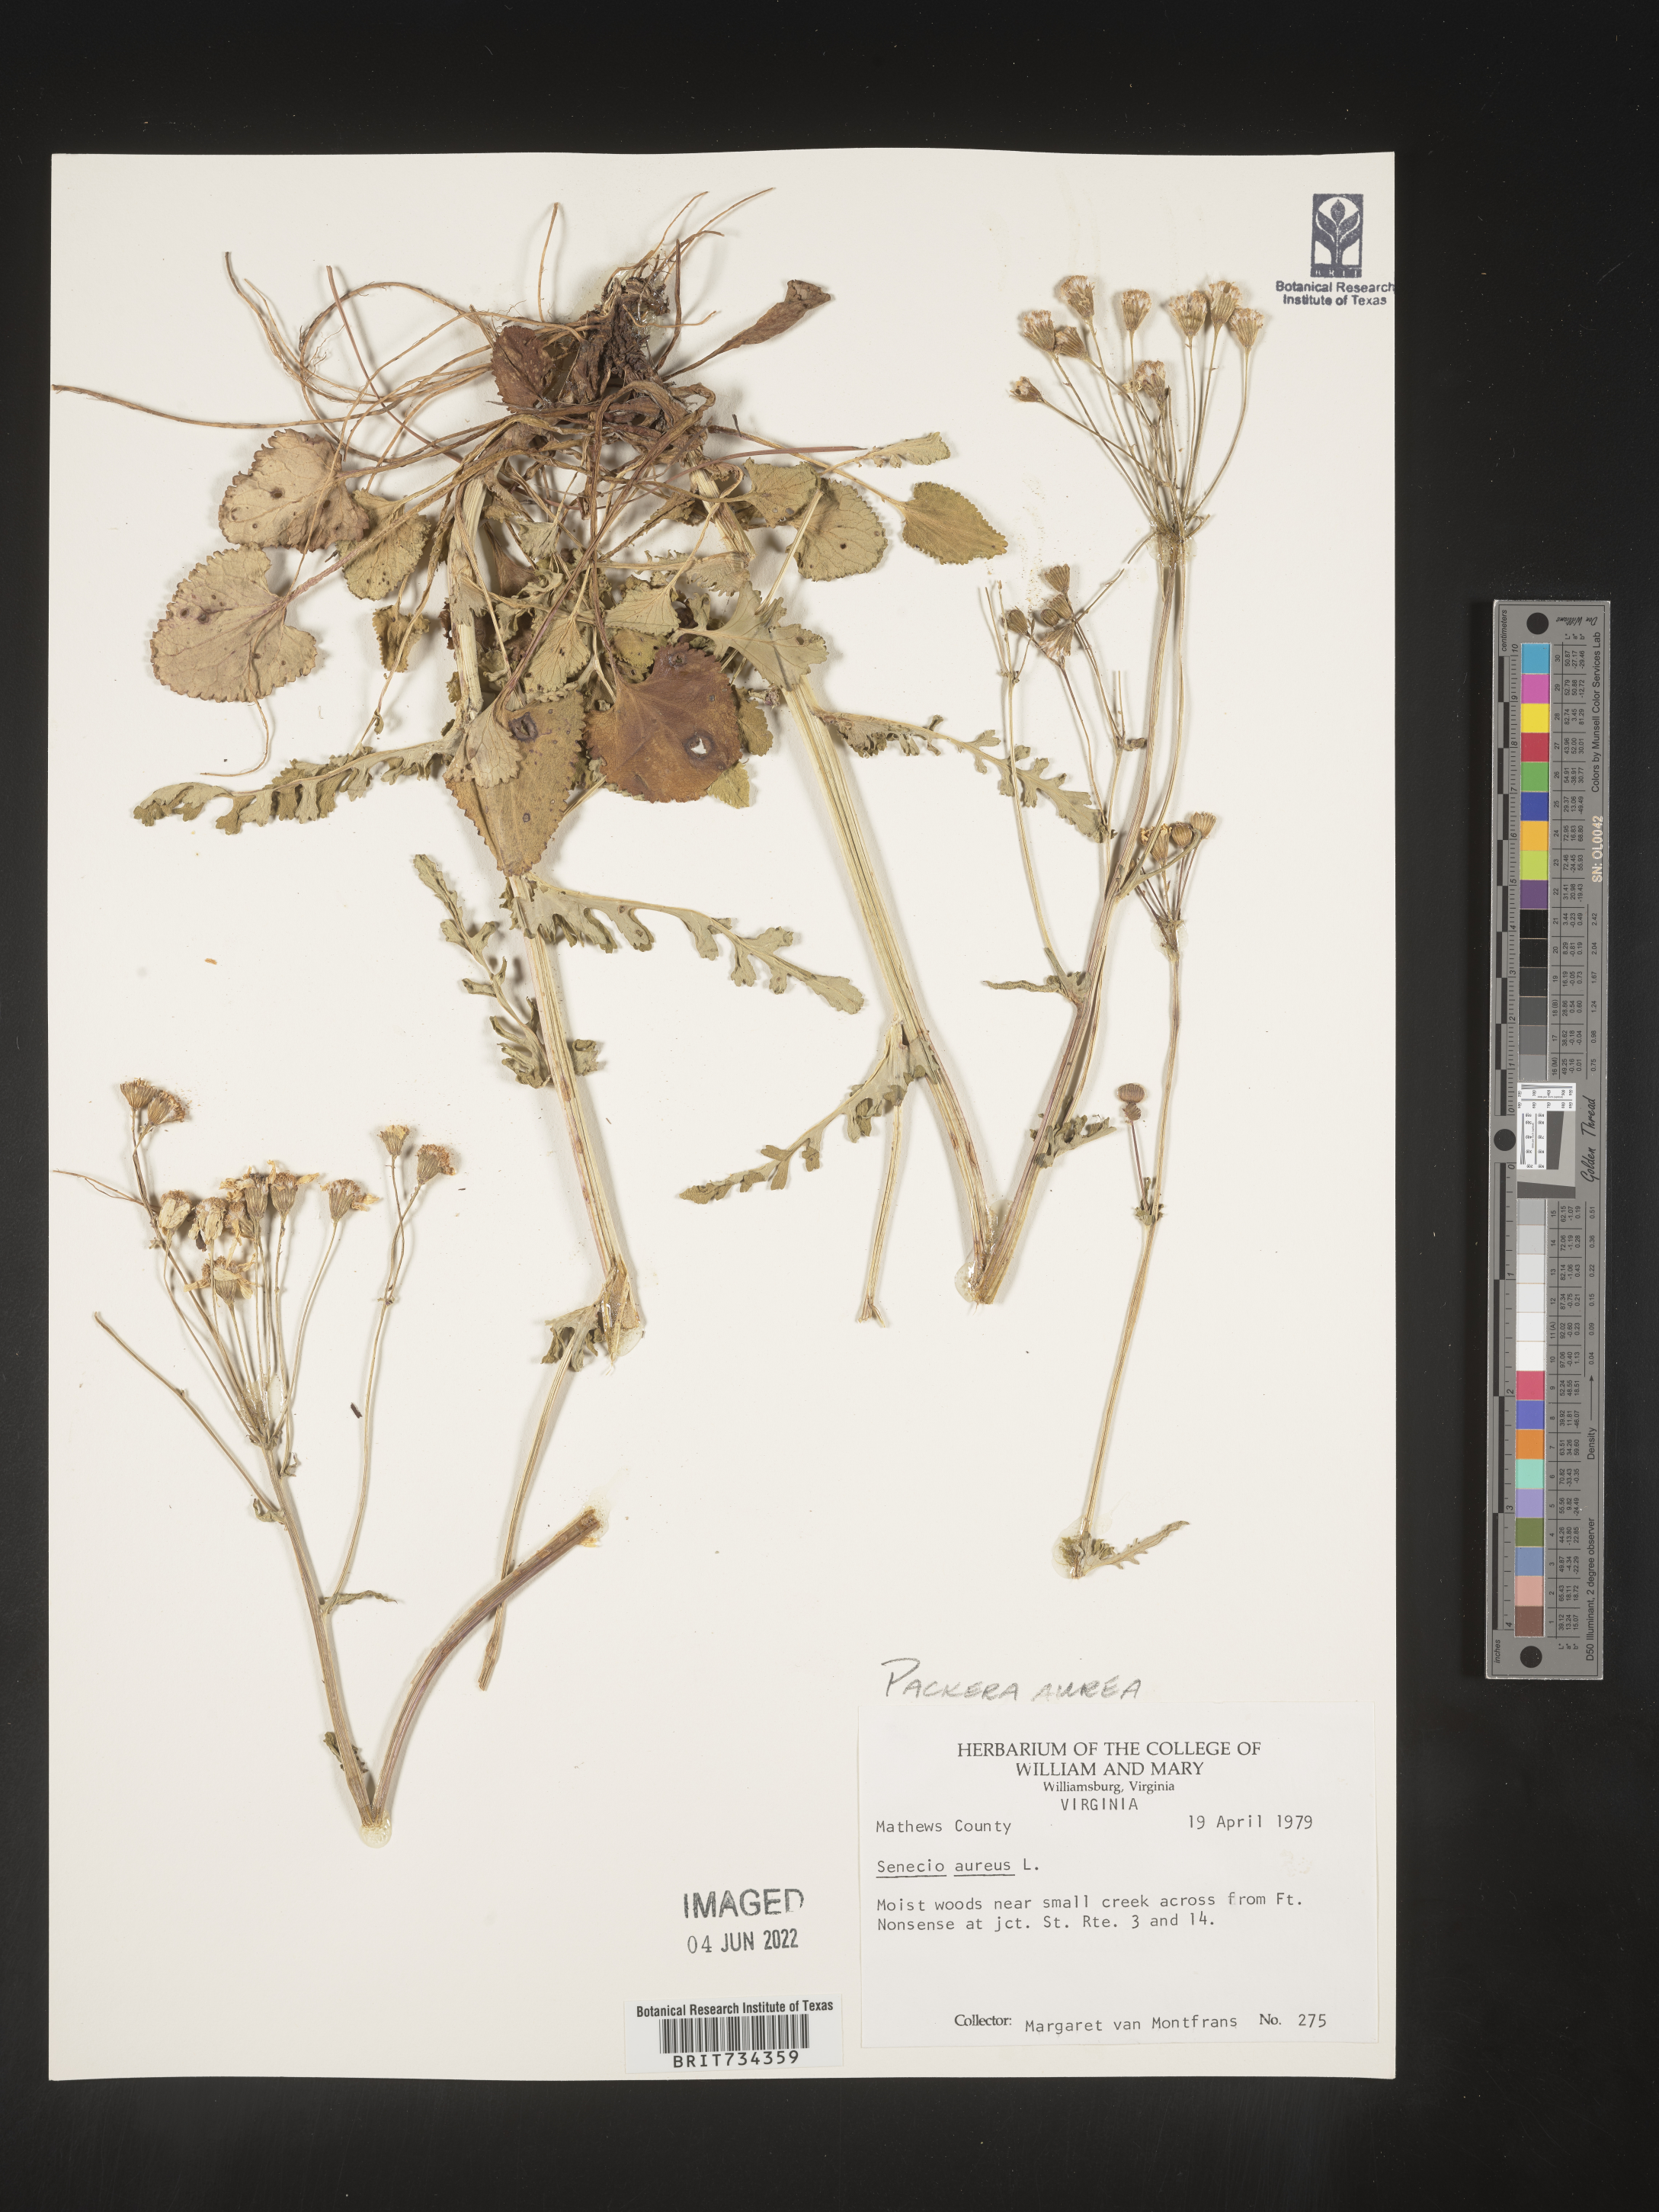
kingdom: Plantae
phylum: Tracheophyta
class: Magnoliopsida
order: Asterales
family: Asteraceae
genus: Packera
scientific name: Packera aurea
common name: Golden groundsel
